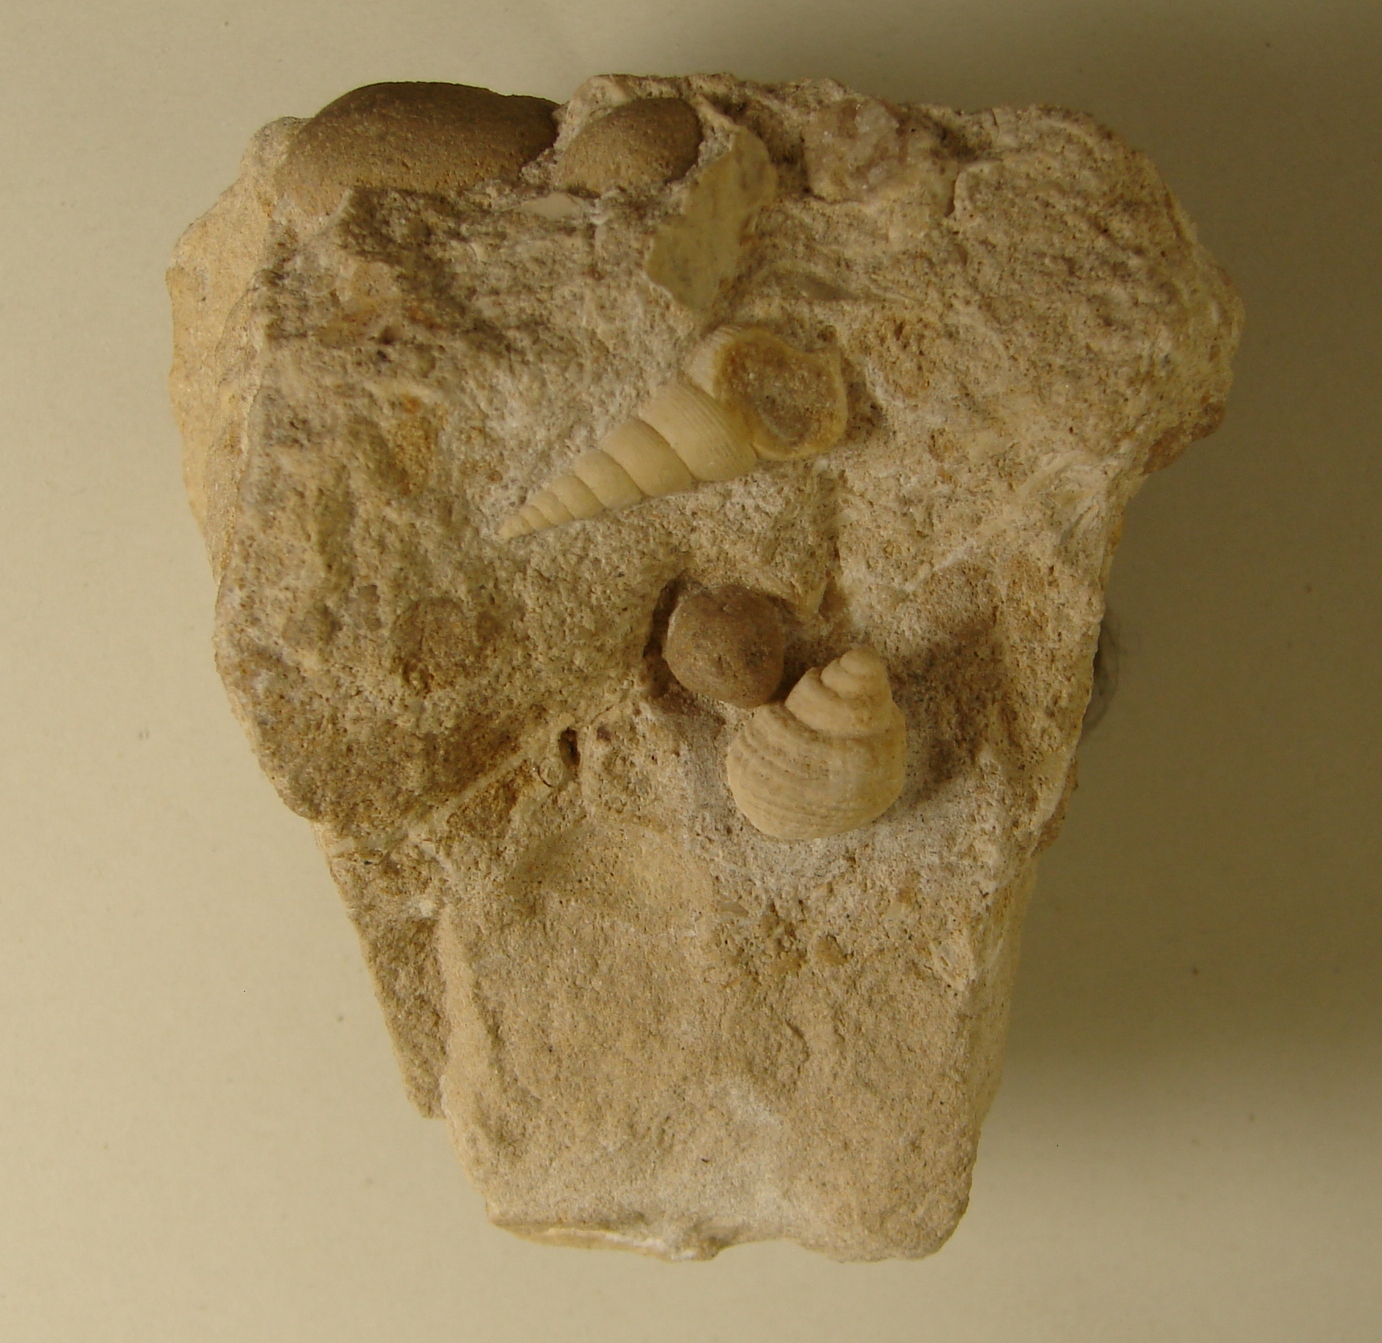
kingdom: Animalia
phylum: Mollusca
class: Gastropoda
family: Pseudomelaniidae
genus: Bourgetia
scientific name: Bourgetia Turritella deshayesea
